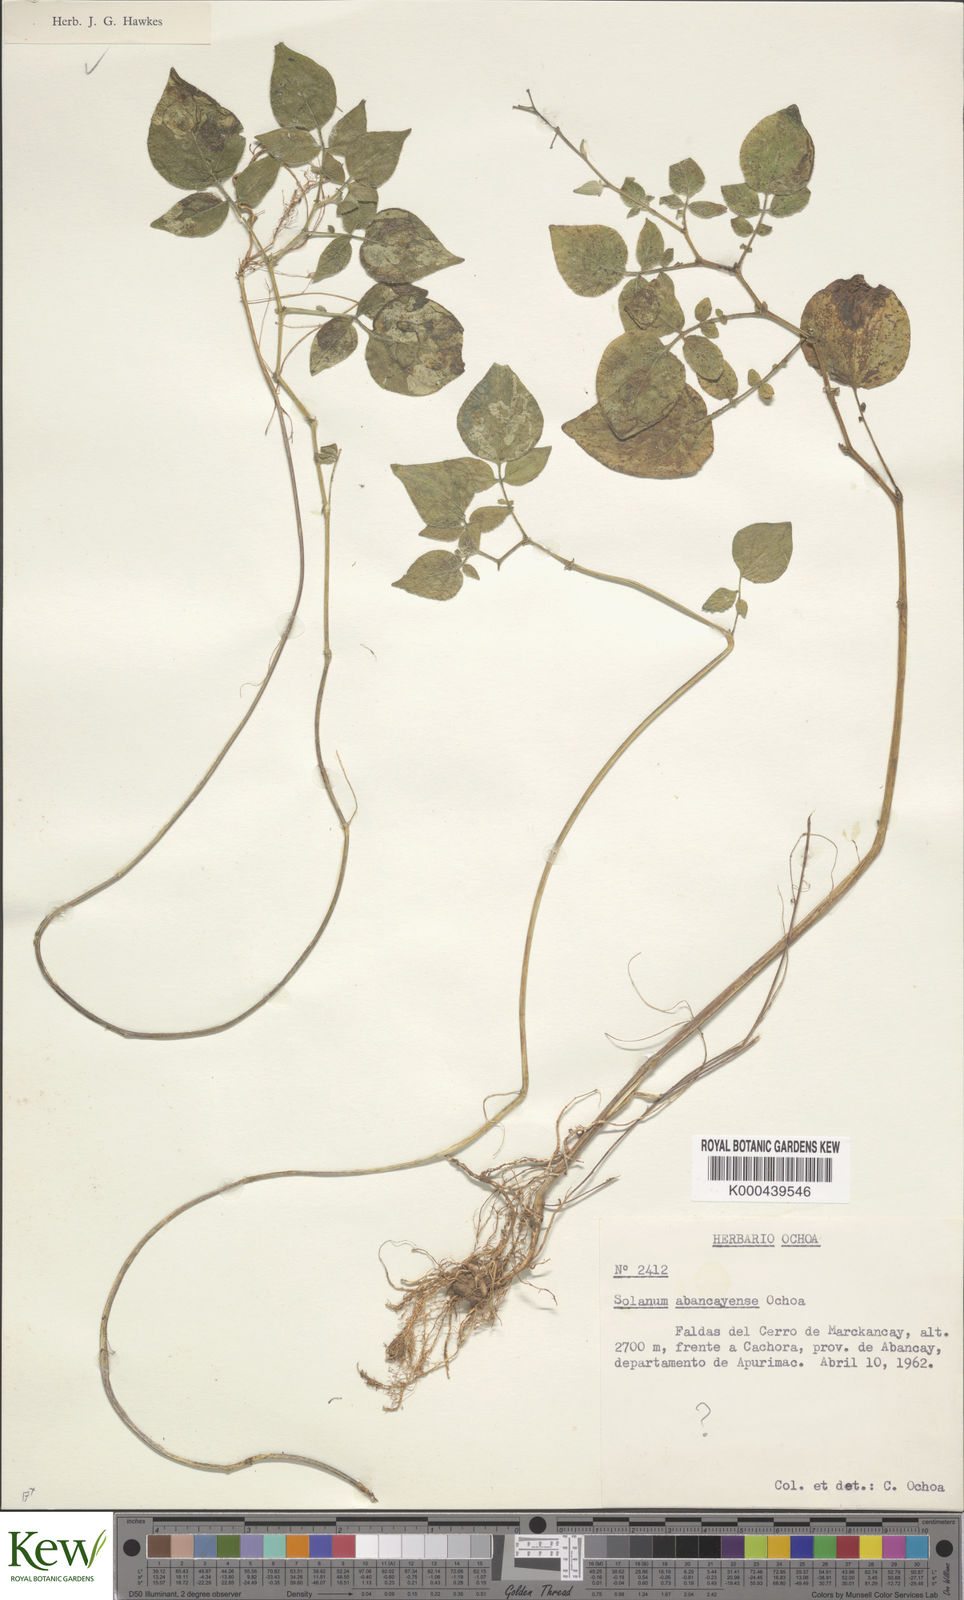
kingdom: Plantae
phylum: Tracheophyta
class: Magnoliopsida
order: Solanales
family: Solanaceae
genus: Solanum
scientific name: Solanum candolleanum
